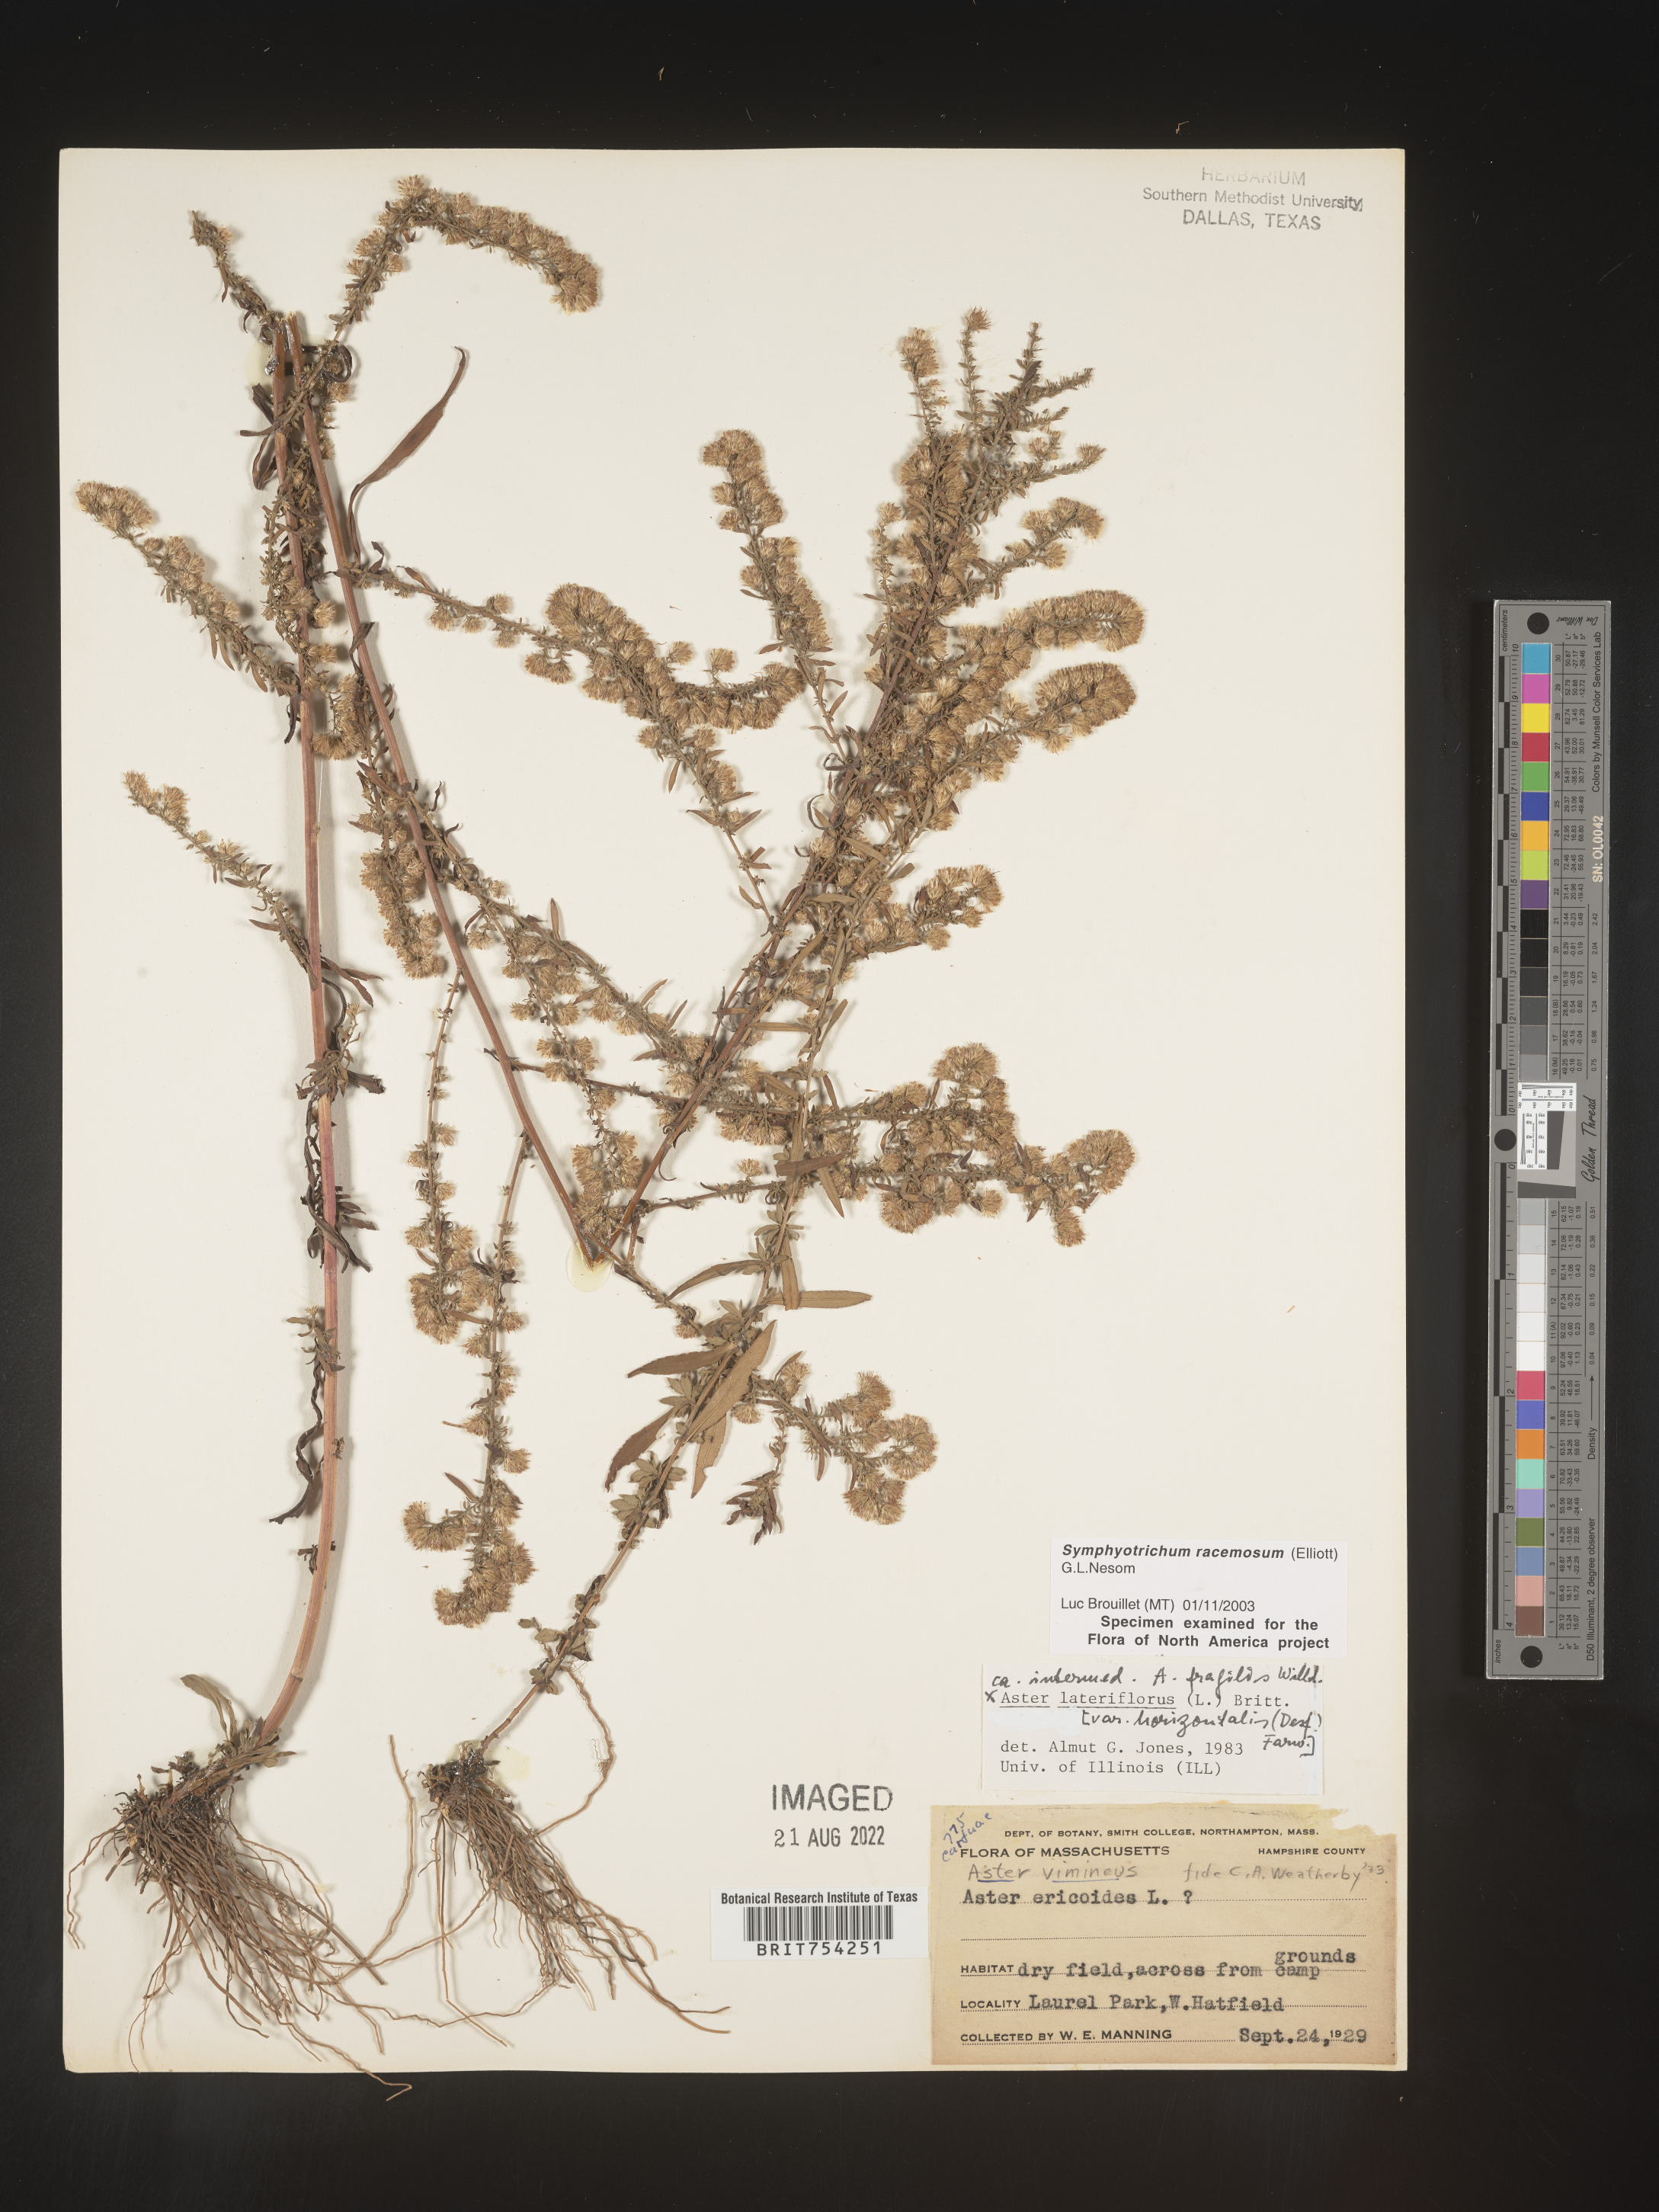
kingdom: Plantae
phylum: Tracheophyta
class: Magnoliopsida
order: Asterales
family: Asteraceae
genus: Symphyotrichum
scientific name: Symphyotrichum racemosum
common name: Small white aster
